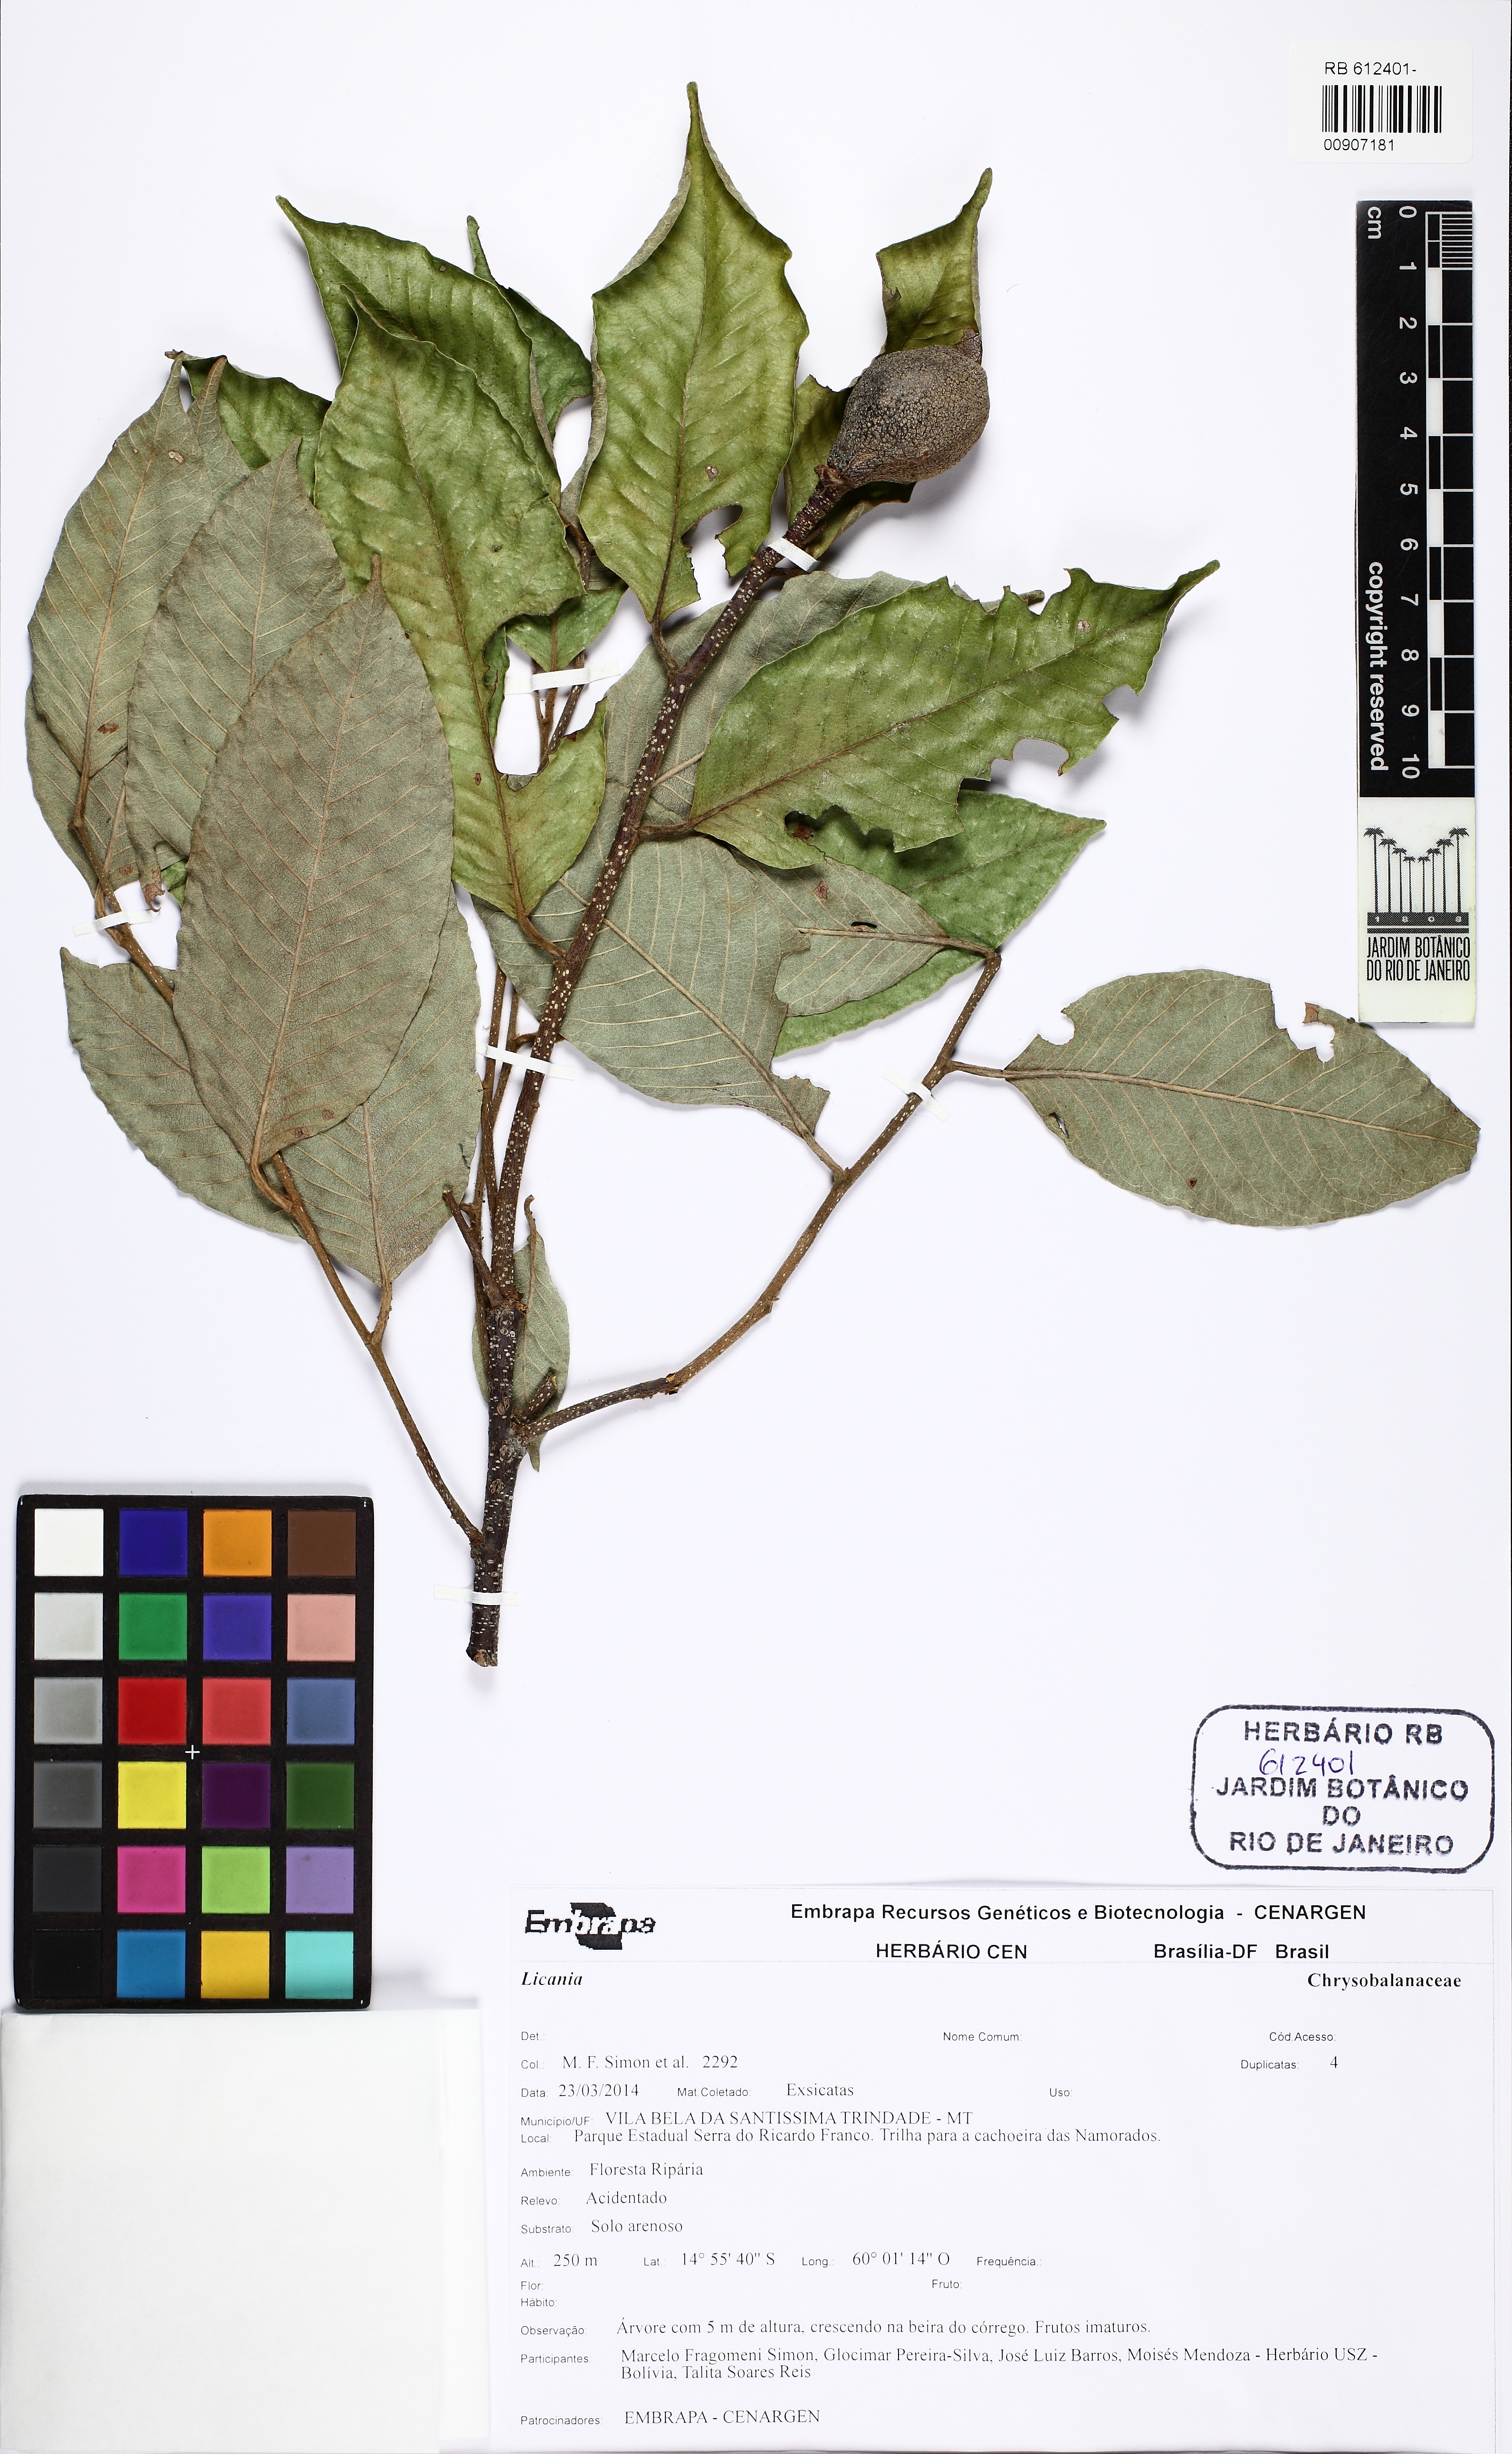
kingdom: Plantae
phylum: Tracheophyta
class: Magnoliopsida
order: Malpighiales
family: Chrysobalanaceae
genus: Parinari
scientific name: Parinari occidentalis
